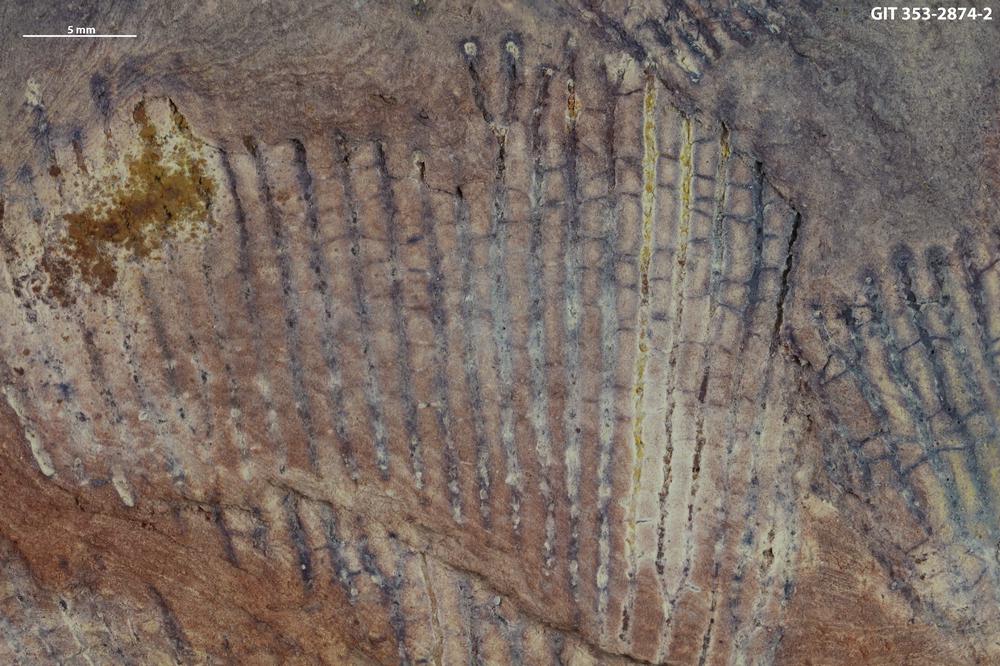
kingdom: Animalia
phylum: Hemichordata
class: Pterobranchia
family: Anisograptidae
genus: Rhabdinopora
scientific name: Rhabdinopora Gorgonia flabelliformis
